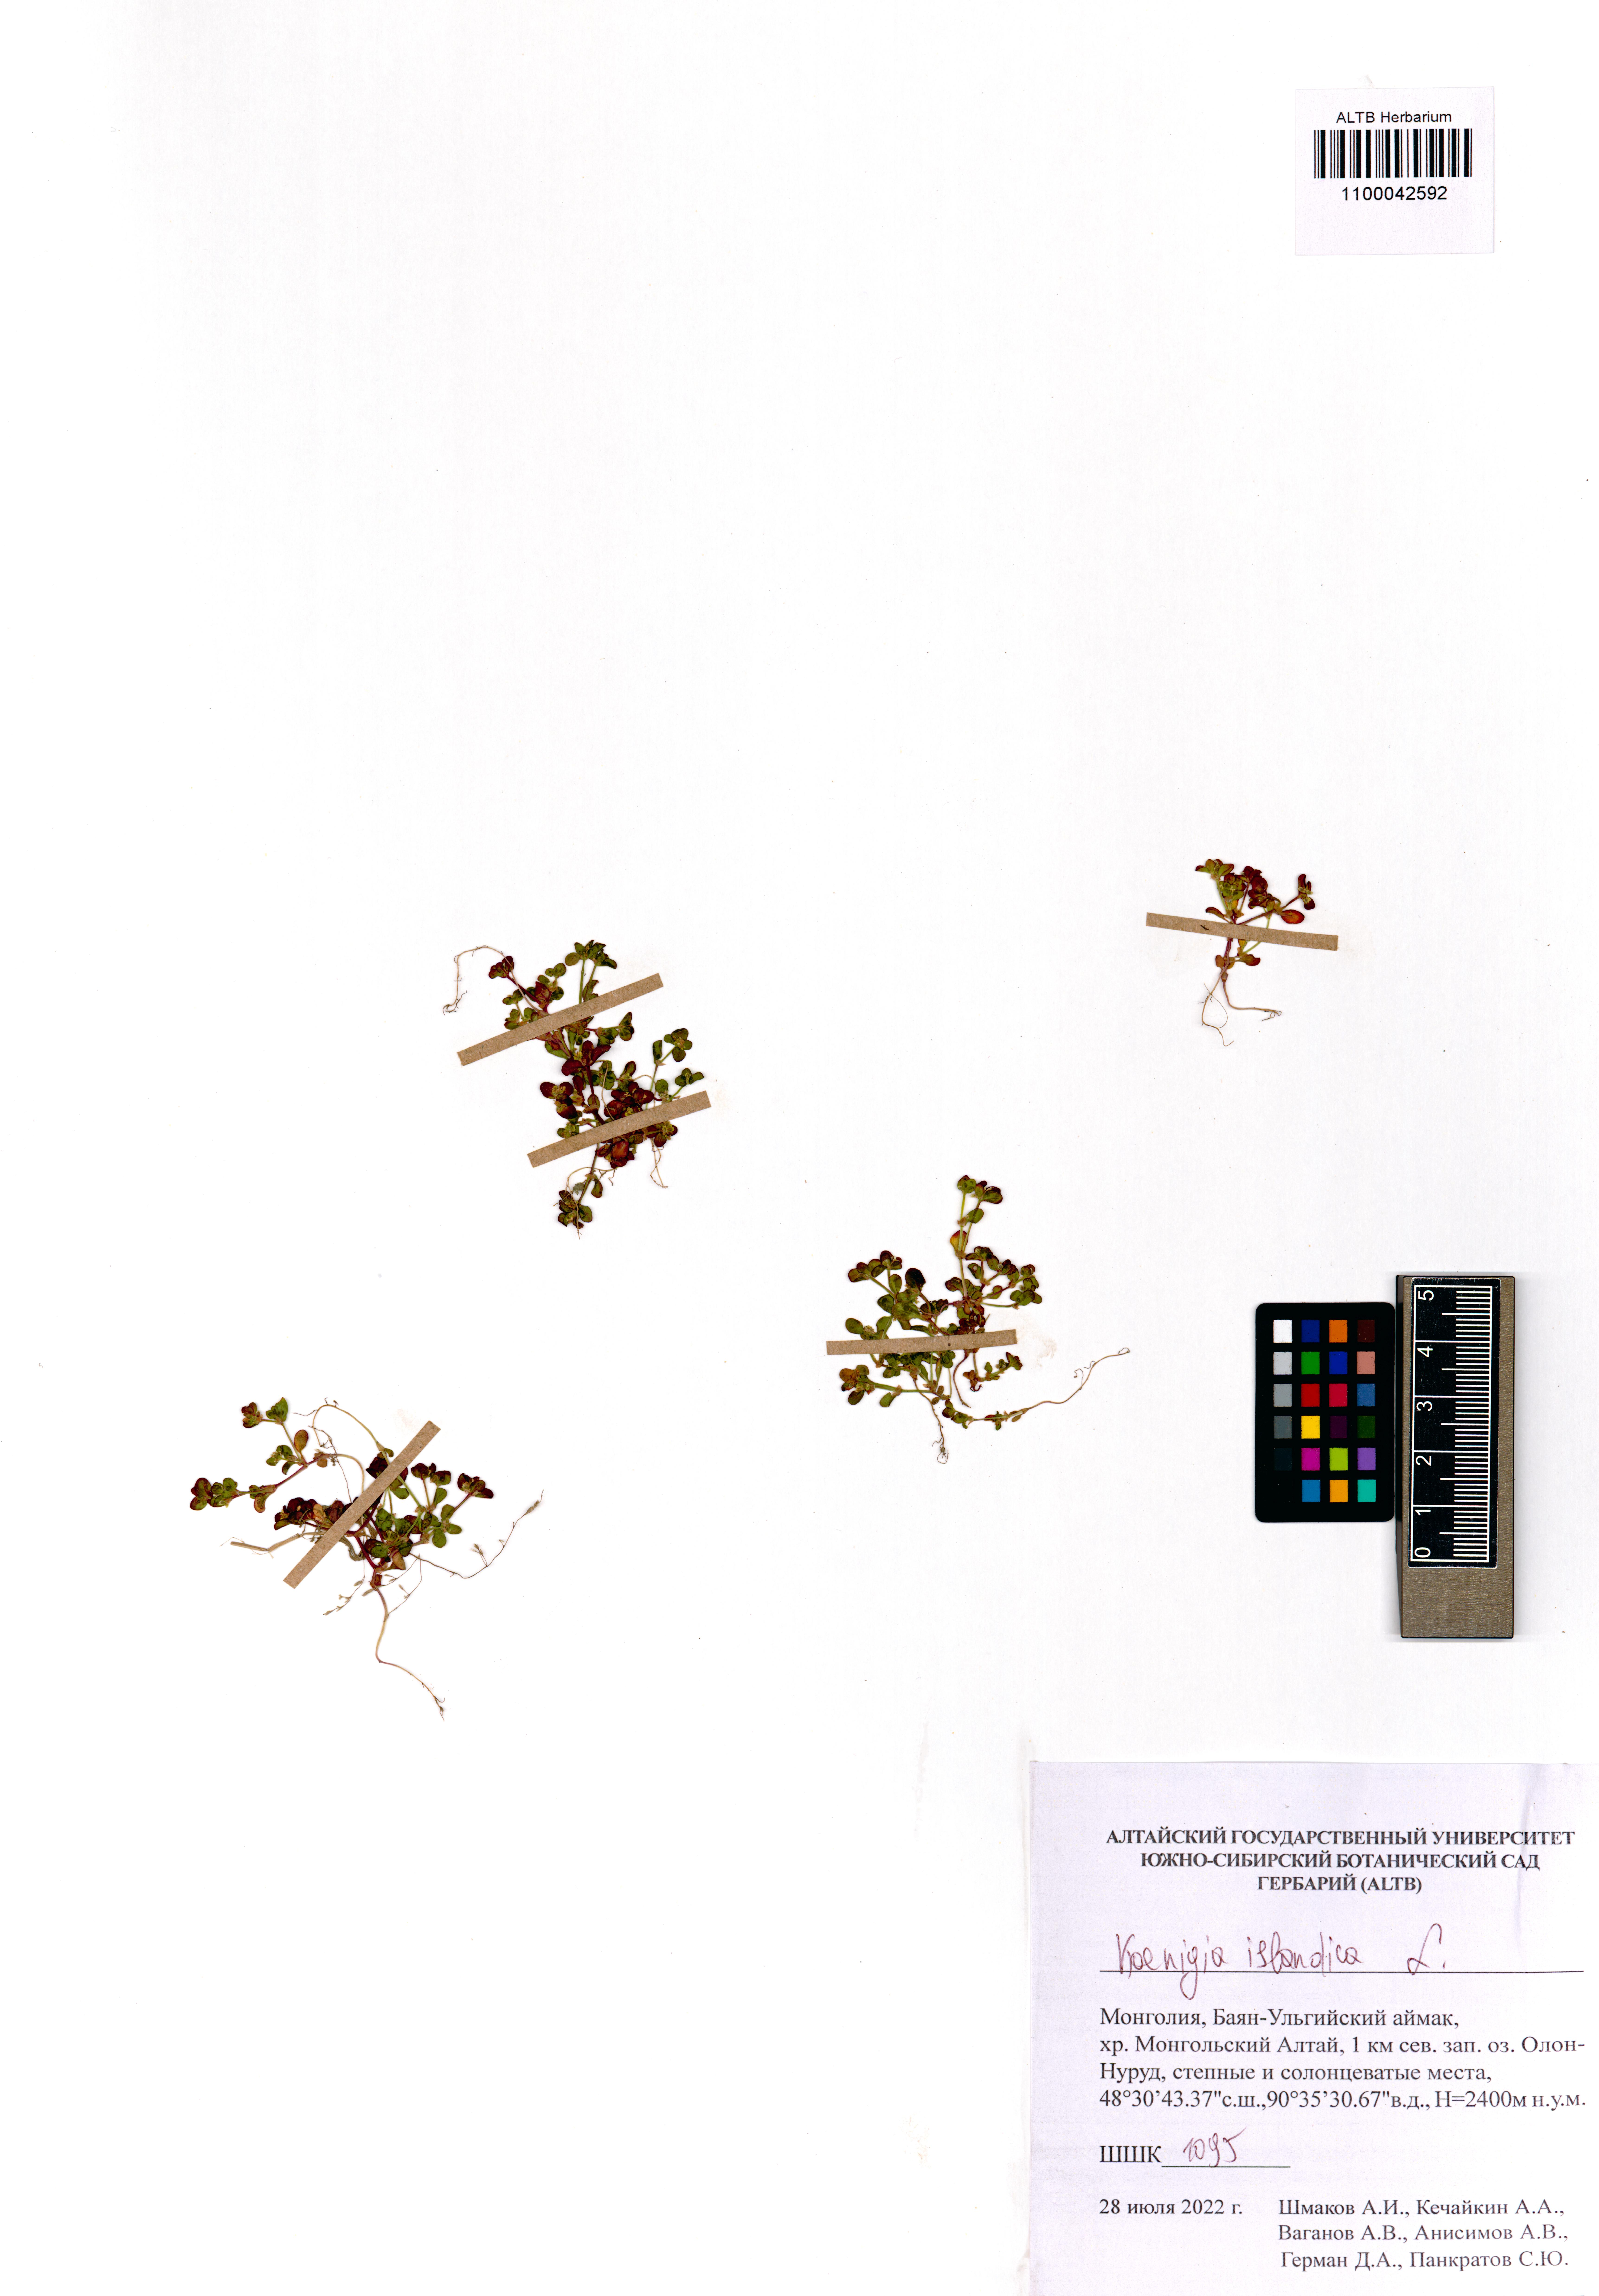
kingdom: Plantae
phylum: Tracheophyta
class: Magnoliopsida
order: Caryophyllales
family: Polygonaceae
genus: Koenigia
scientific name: Koenigia islandica
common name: Iceland-purslane
